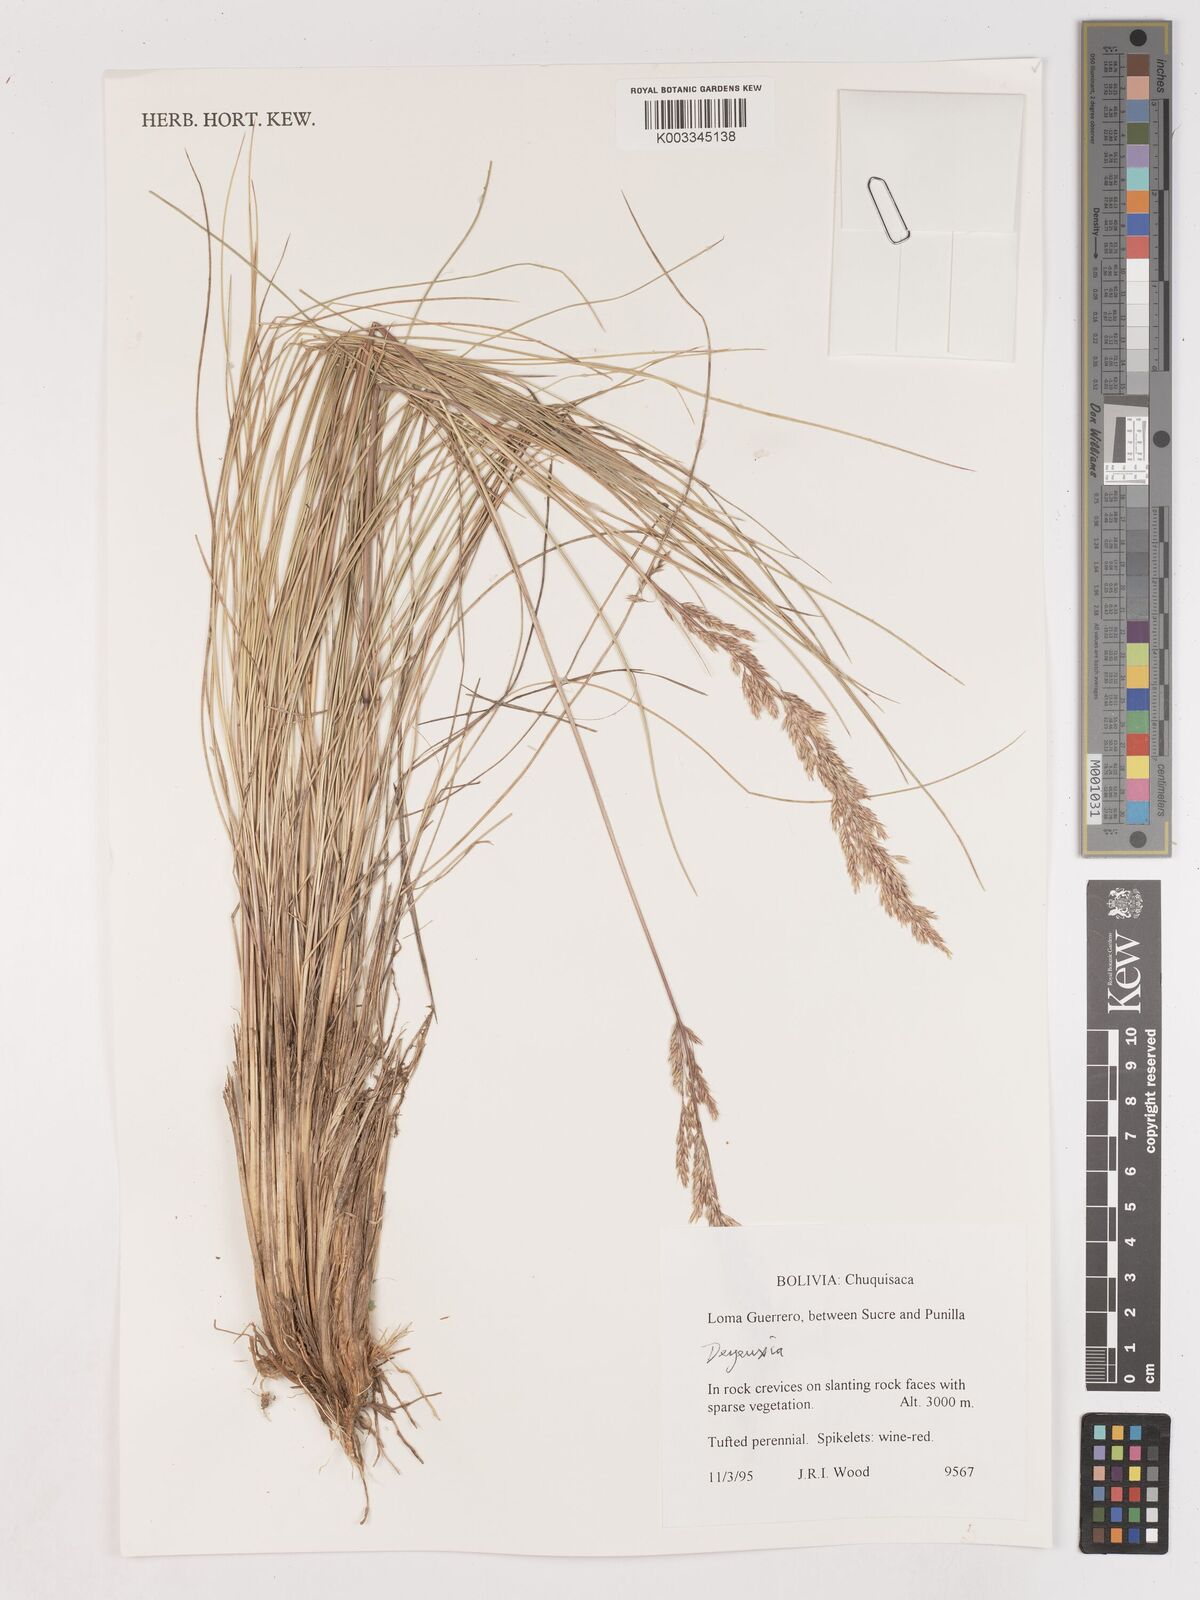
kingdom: Plantae
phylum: Tracheophyta
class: Liliopsida
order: Poales
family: Poaceae
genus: Calamagrostis
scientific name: Calamagrostis
